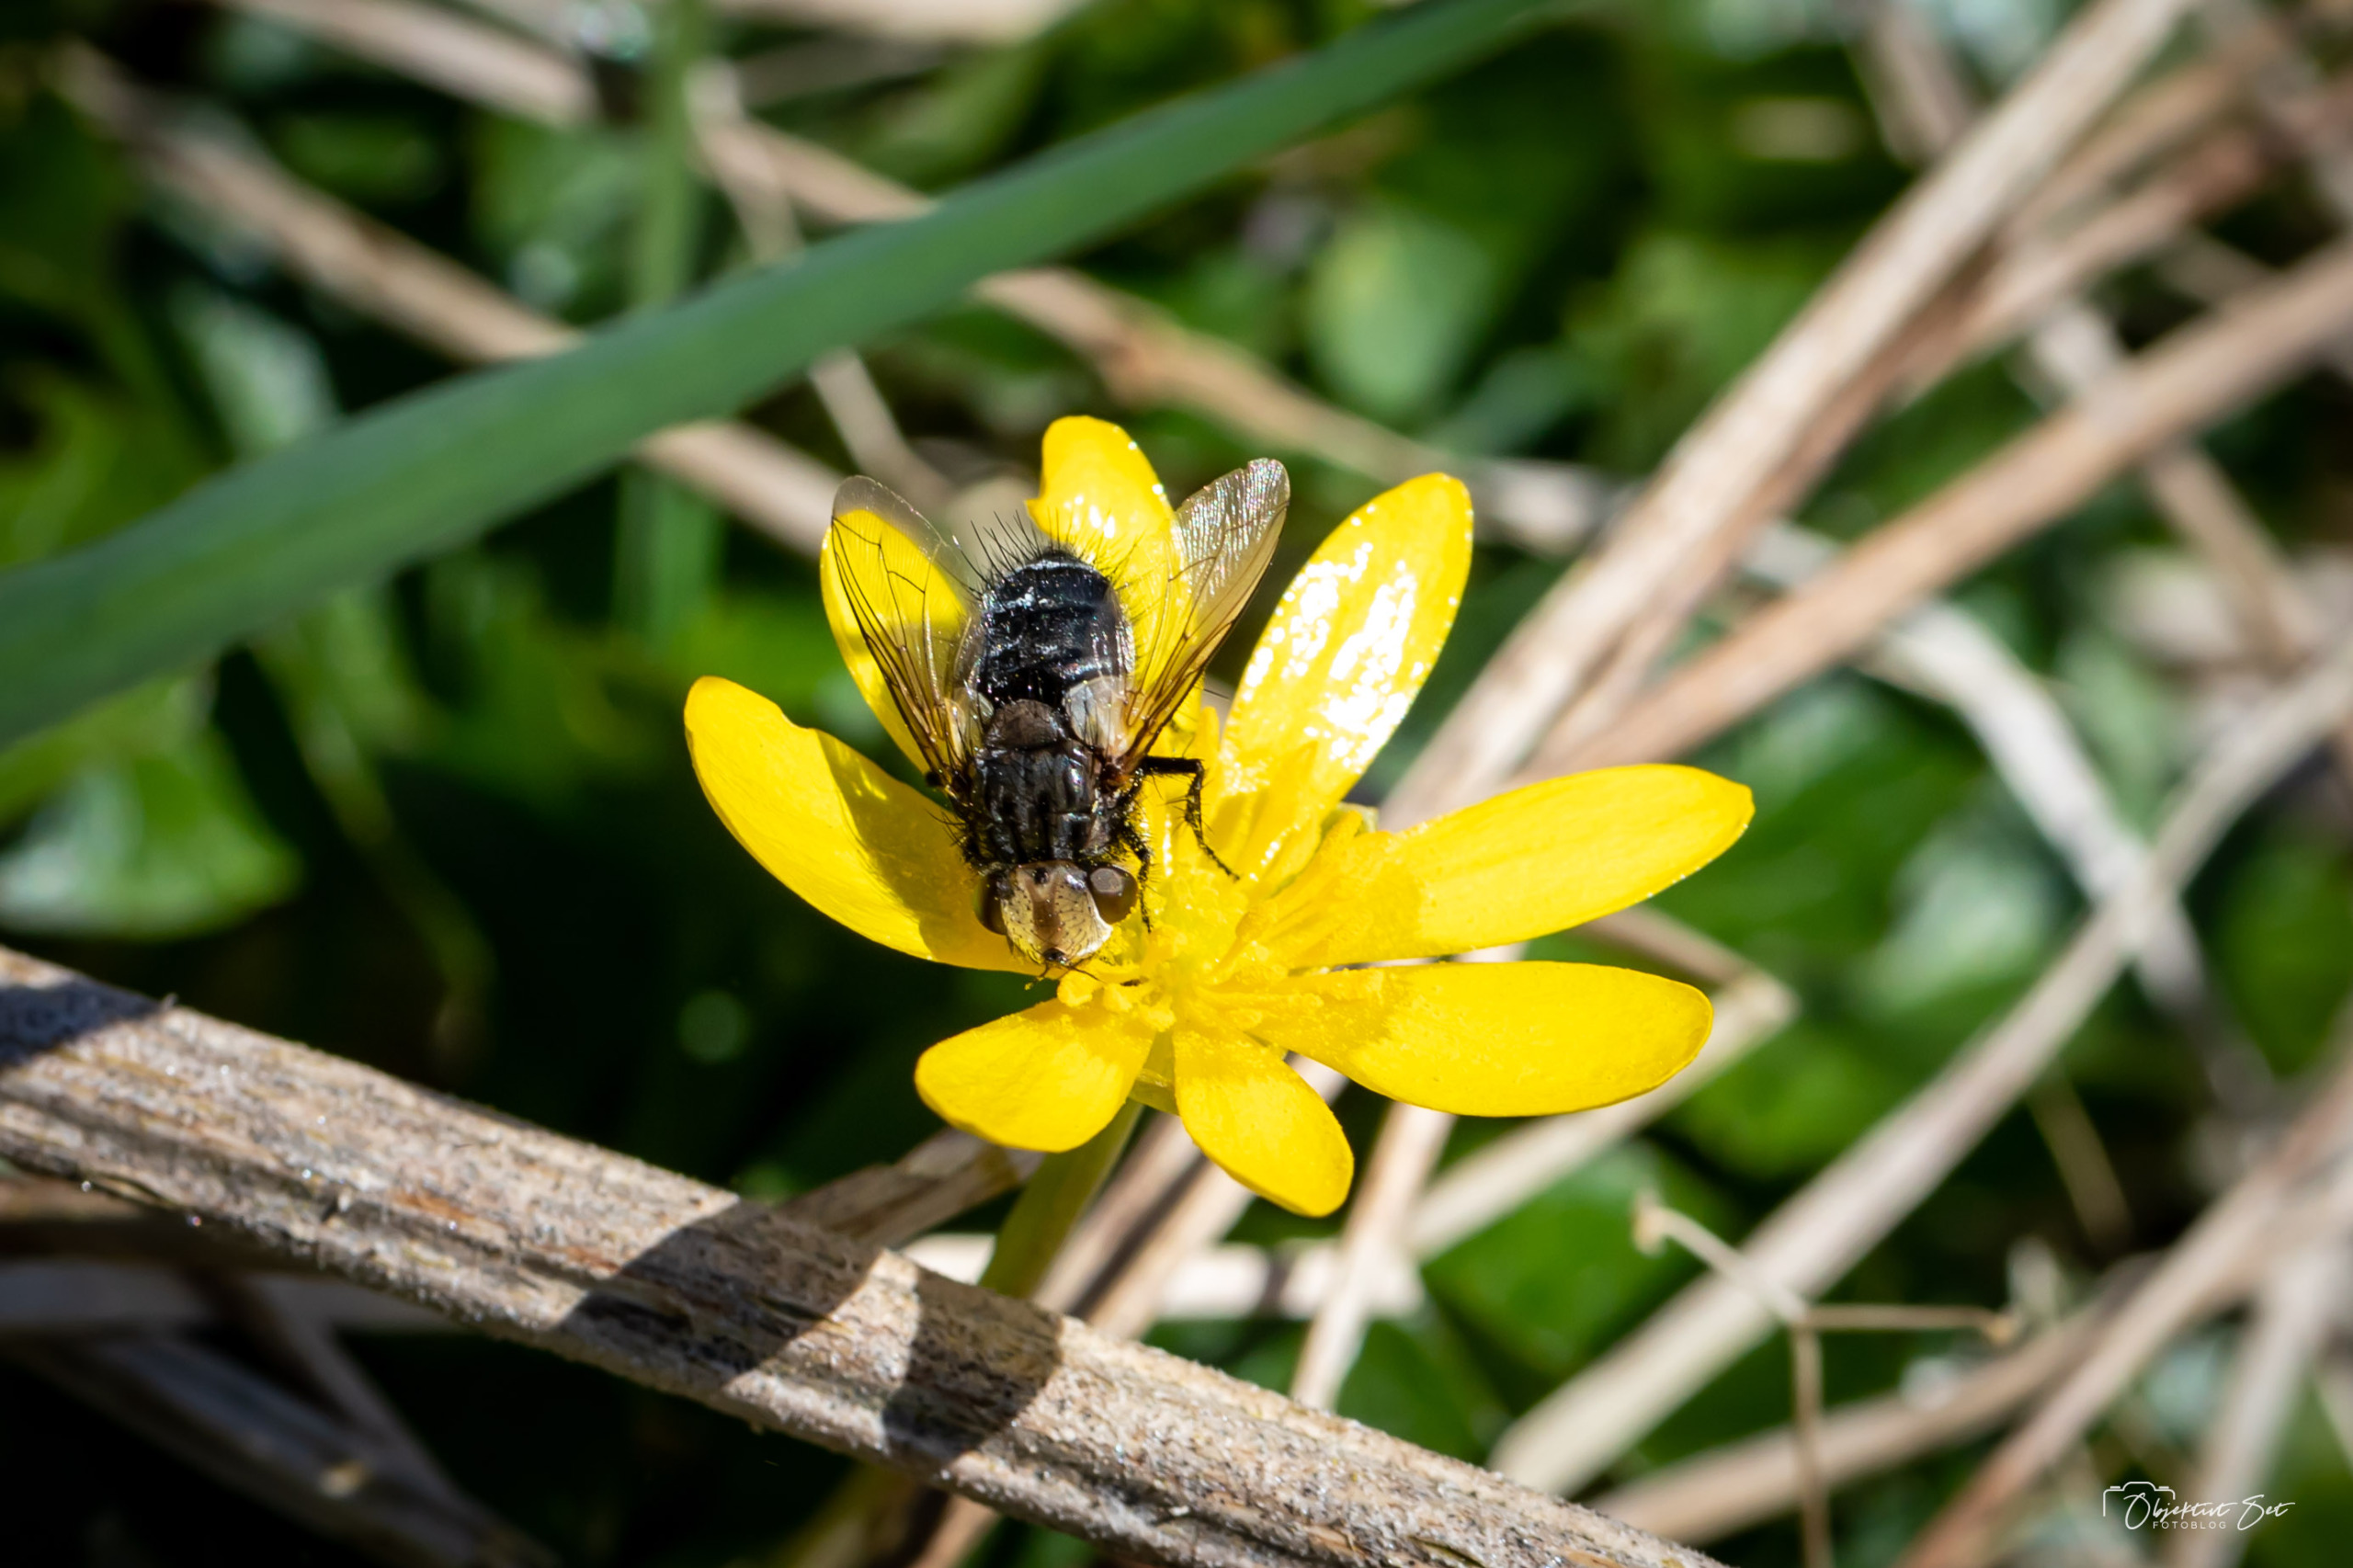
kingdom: Animalia
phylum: Arthropoda
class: Insecta
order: Diptera
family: Tachinidae
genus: Gonia
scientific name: Gonia picea
